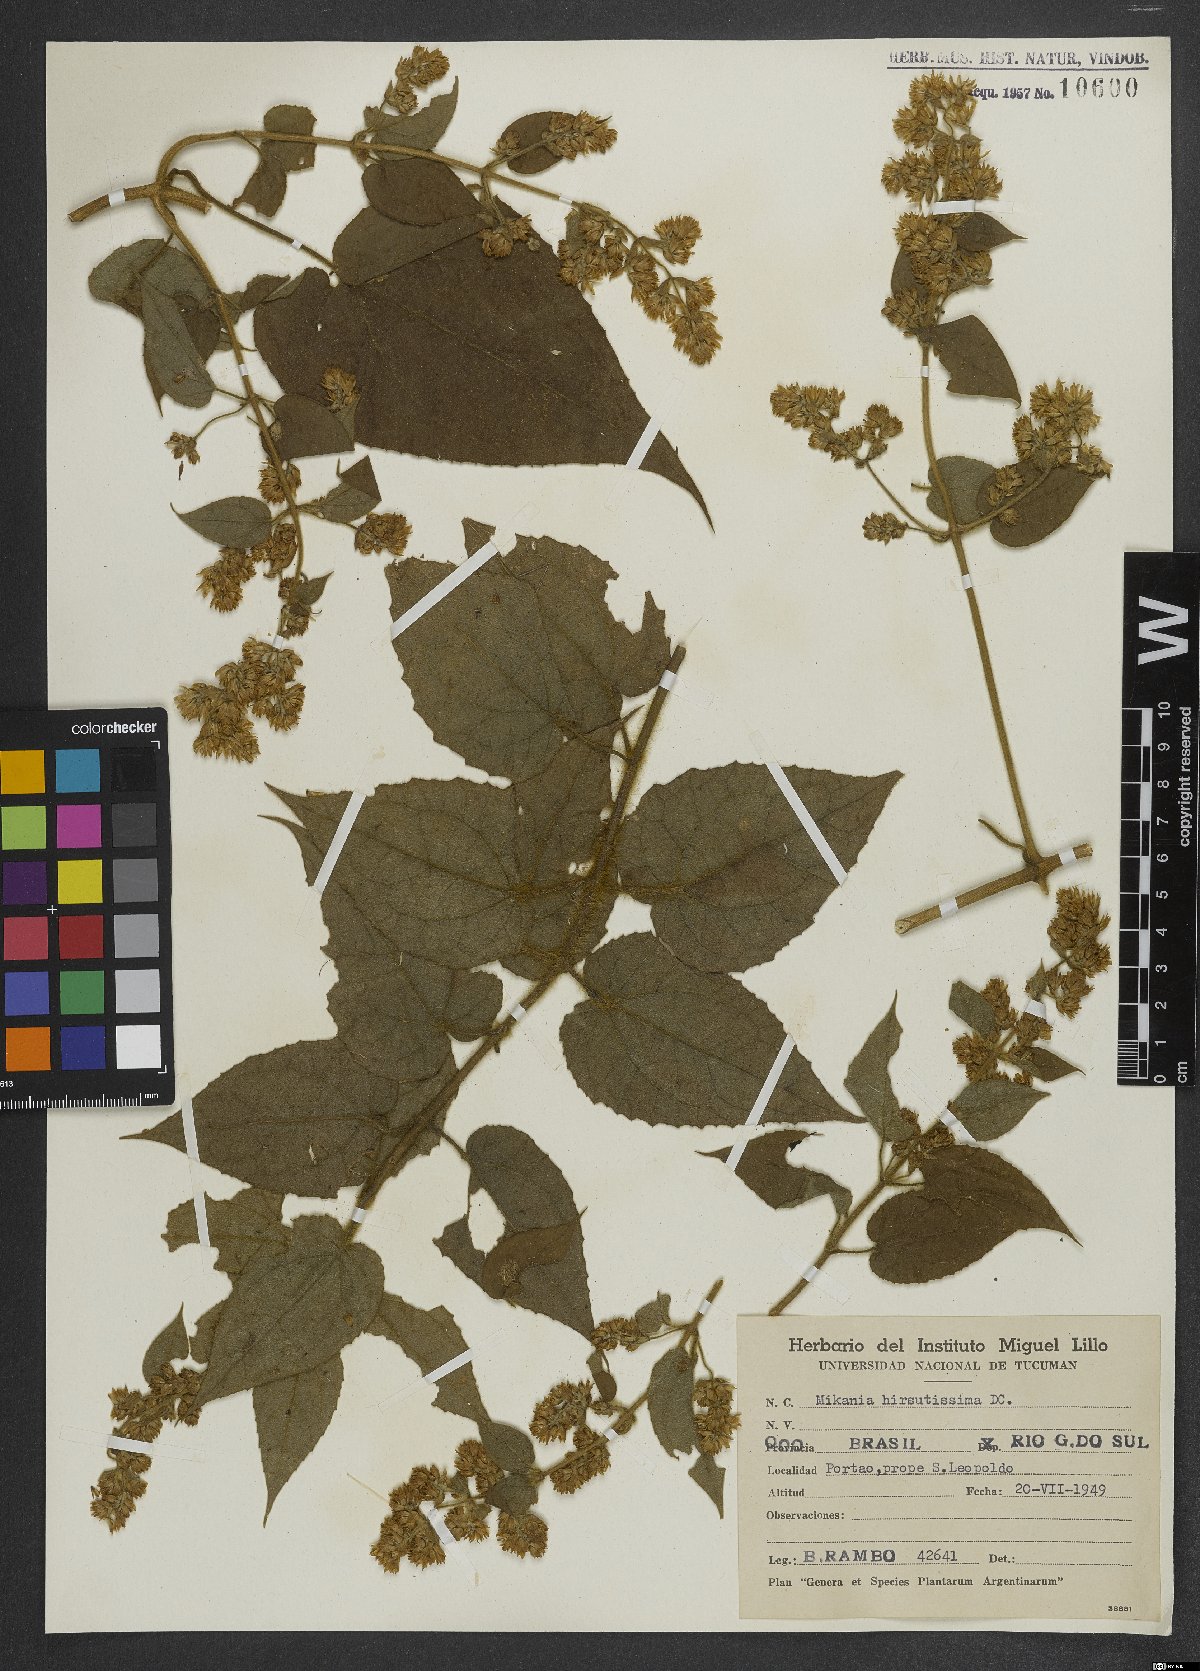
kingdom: Plantae
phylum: Tracheophyta
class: Magnoliopsida
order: Asterales
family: Asteraceae
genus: Mikania
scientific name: Mikania banisteriae
